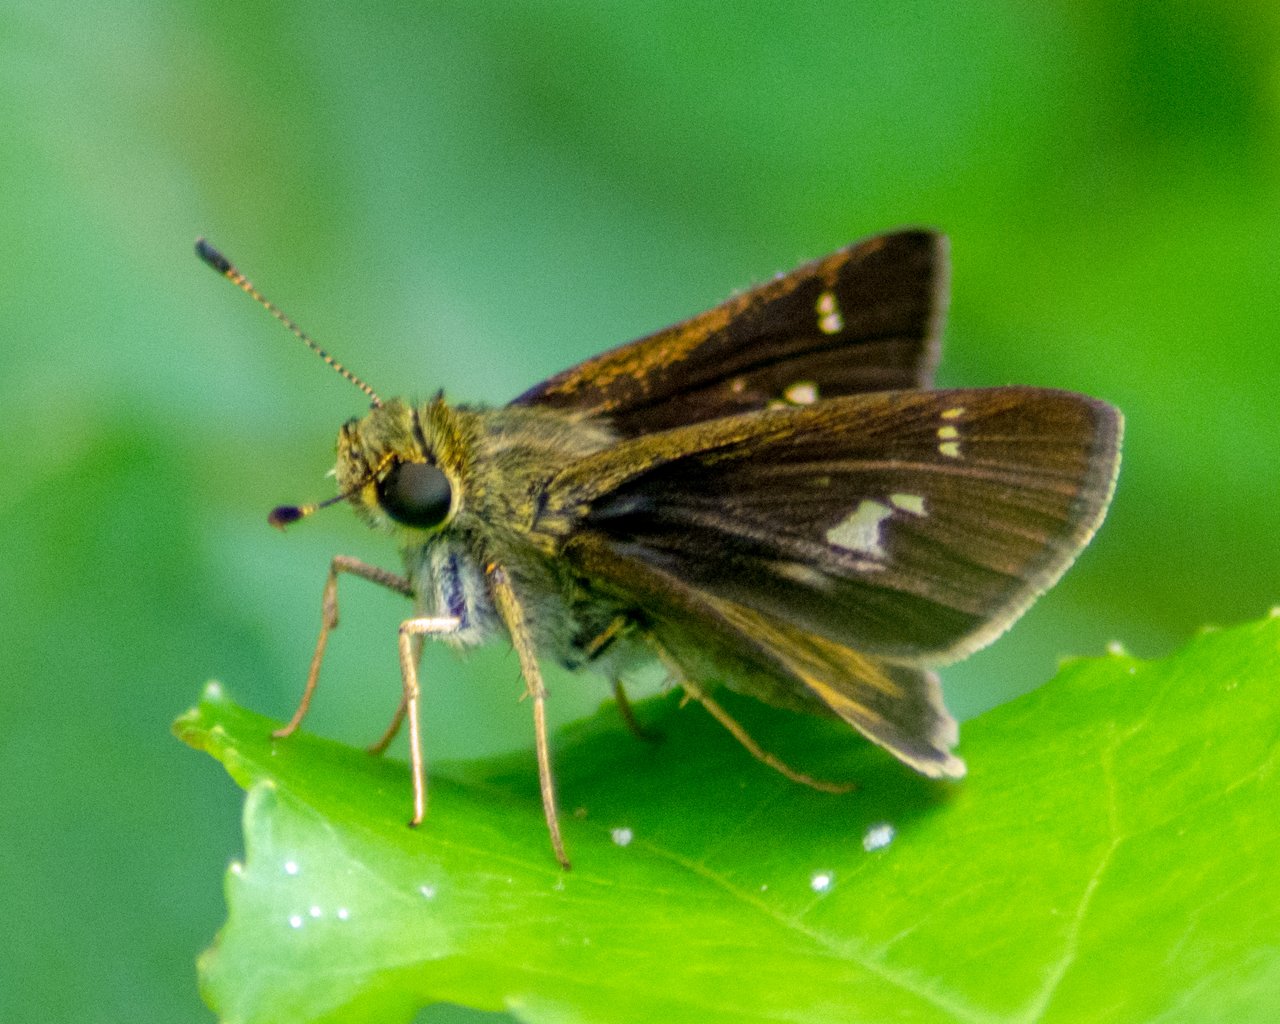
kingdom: Animalia
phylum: Arthropoda
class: Insecta
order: Lepidoptera
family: Hesperiidae
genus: Vernia
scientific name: Vernia verna
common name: Little Glassywing
